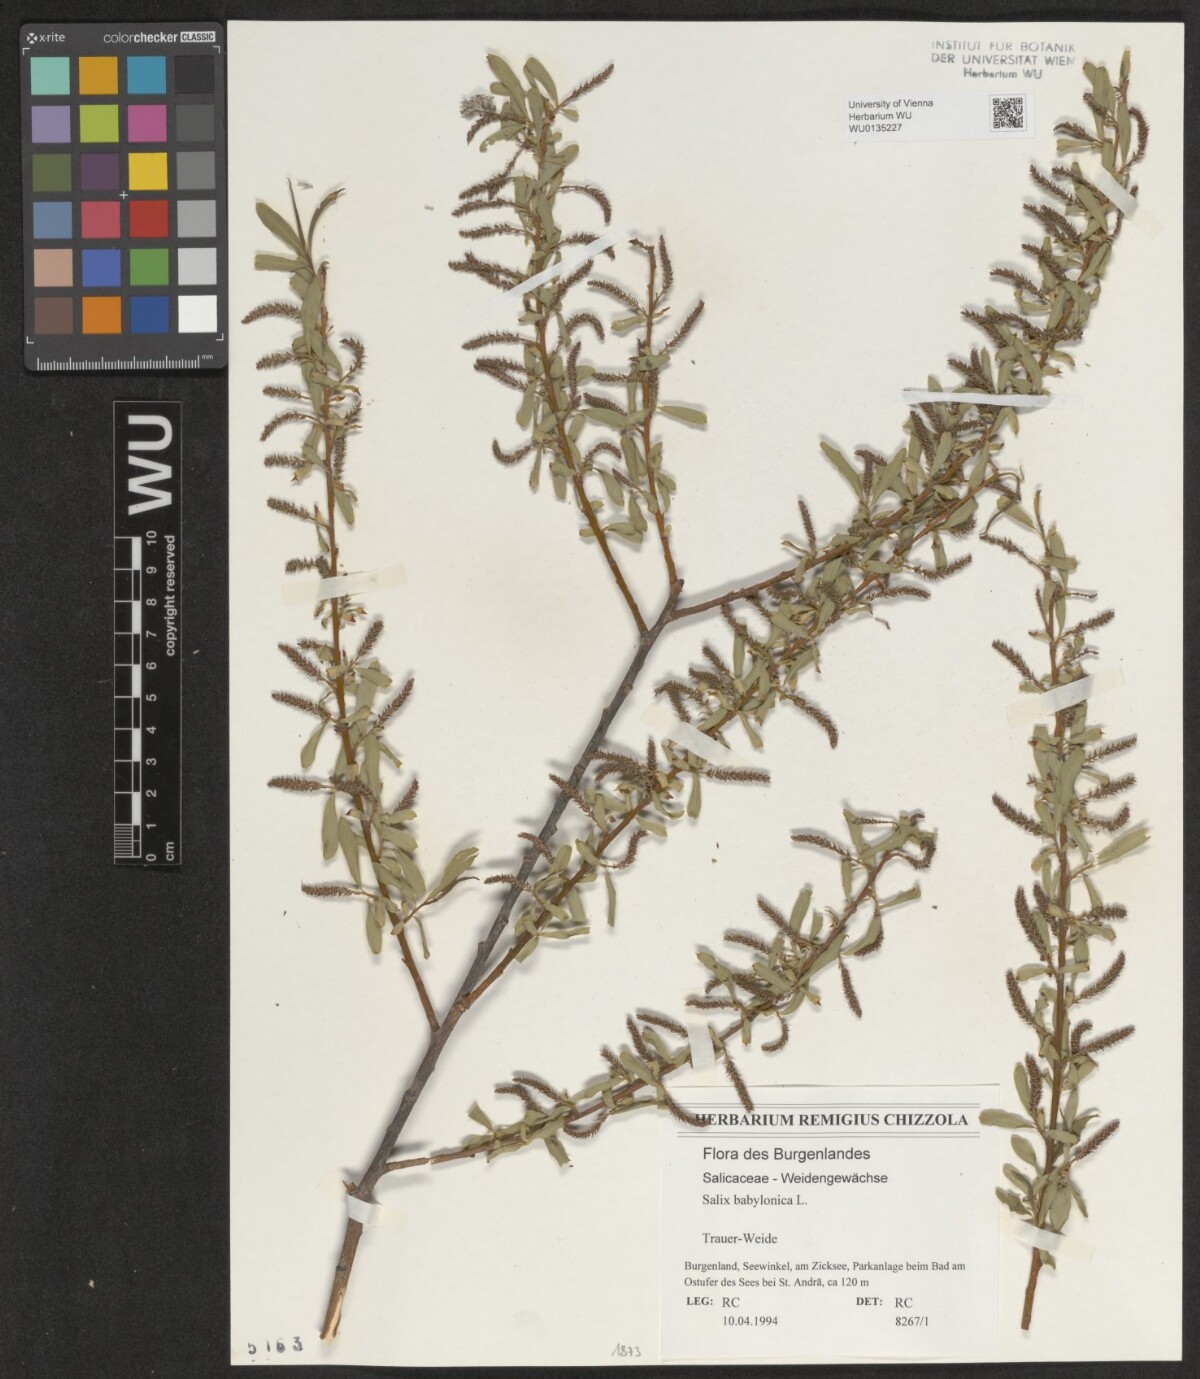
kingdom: Plantae
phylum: Tracheophyta
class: Magnoliopsida
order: Malpighiales
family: Salicaceae
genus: Salix
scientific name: Salix babylonica
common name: Weeping willow
